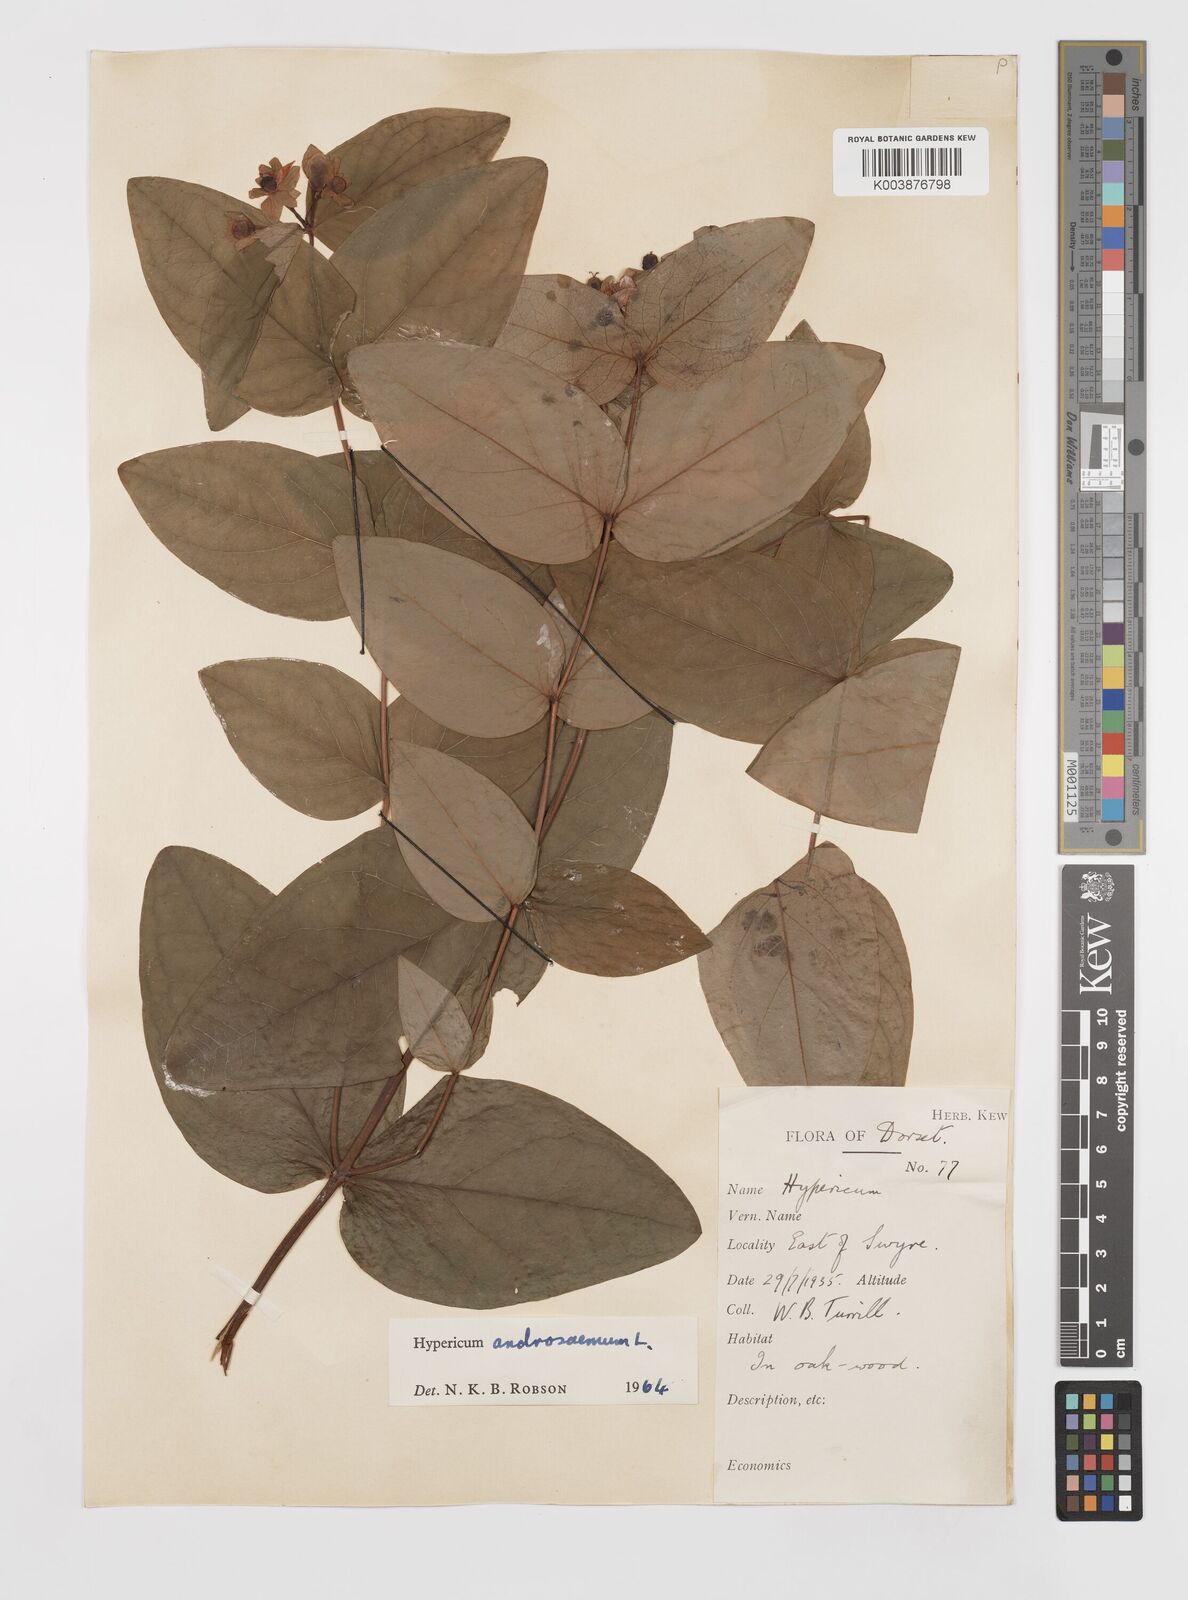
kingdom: Plantae
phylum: Tracheophyta
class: Magnoliopsida
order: Malpighiales
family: Hypericaceae
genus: Hypericum
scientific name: Hypericum androsaemum
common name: Sweet-amber
